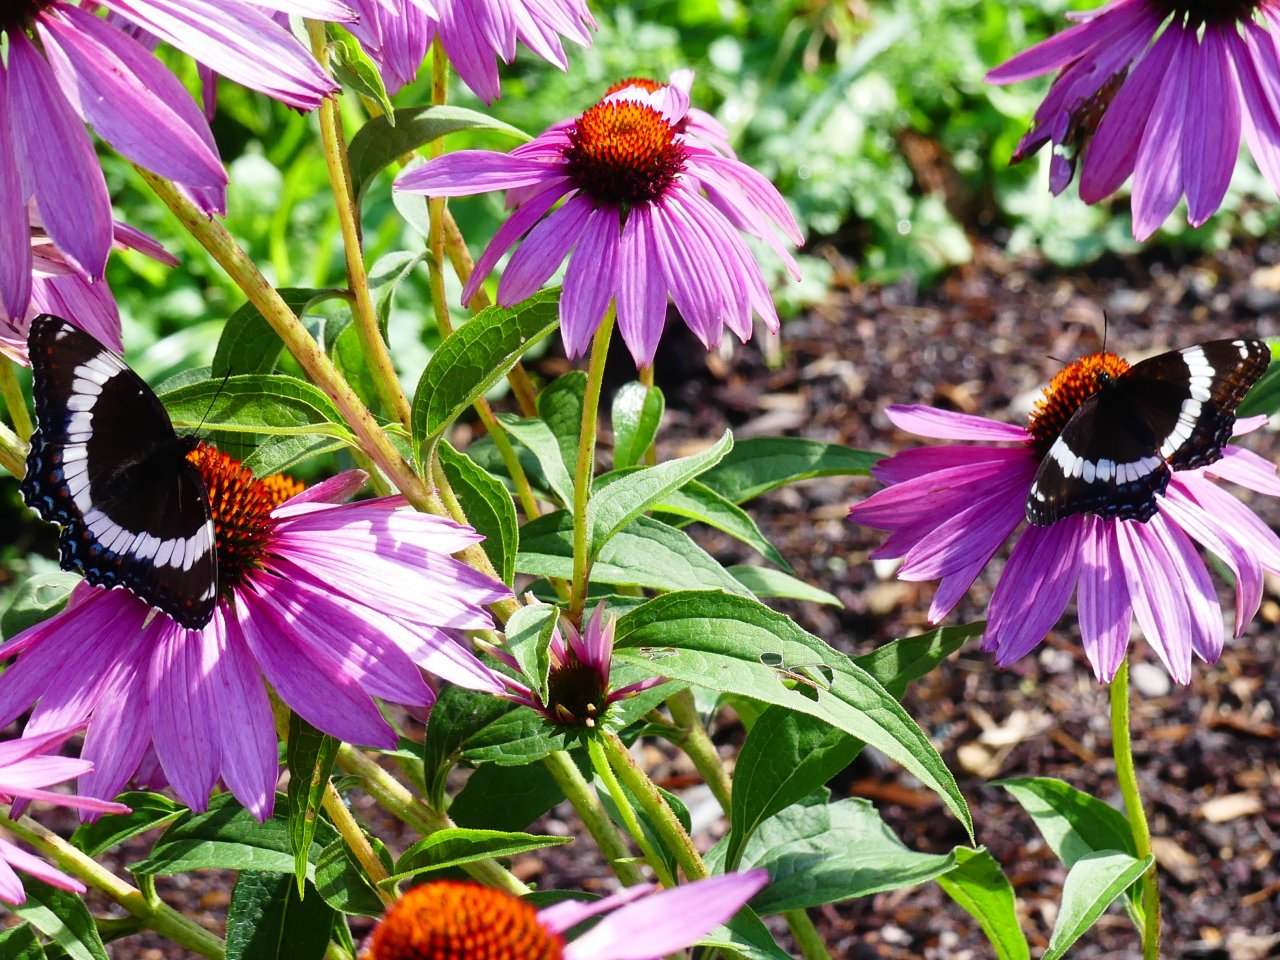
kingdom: Animalia
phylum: Arthropoda
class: Insecta
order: Lepidoptera
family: Nymphalidae
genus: Limenitis
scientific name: Limenitis arthemis
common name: Red-spotted Admiral
